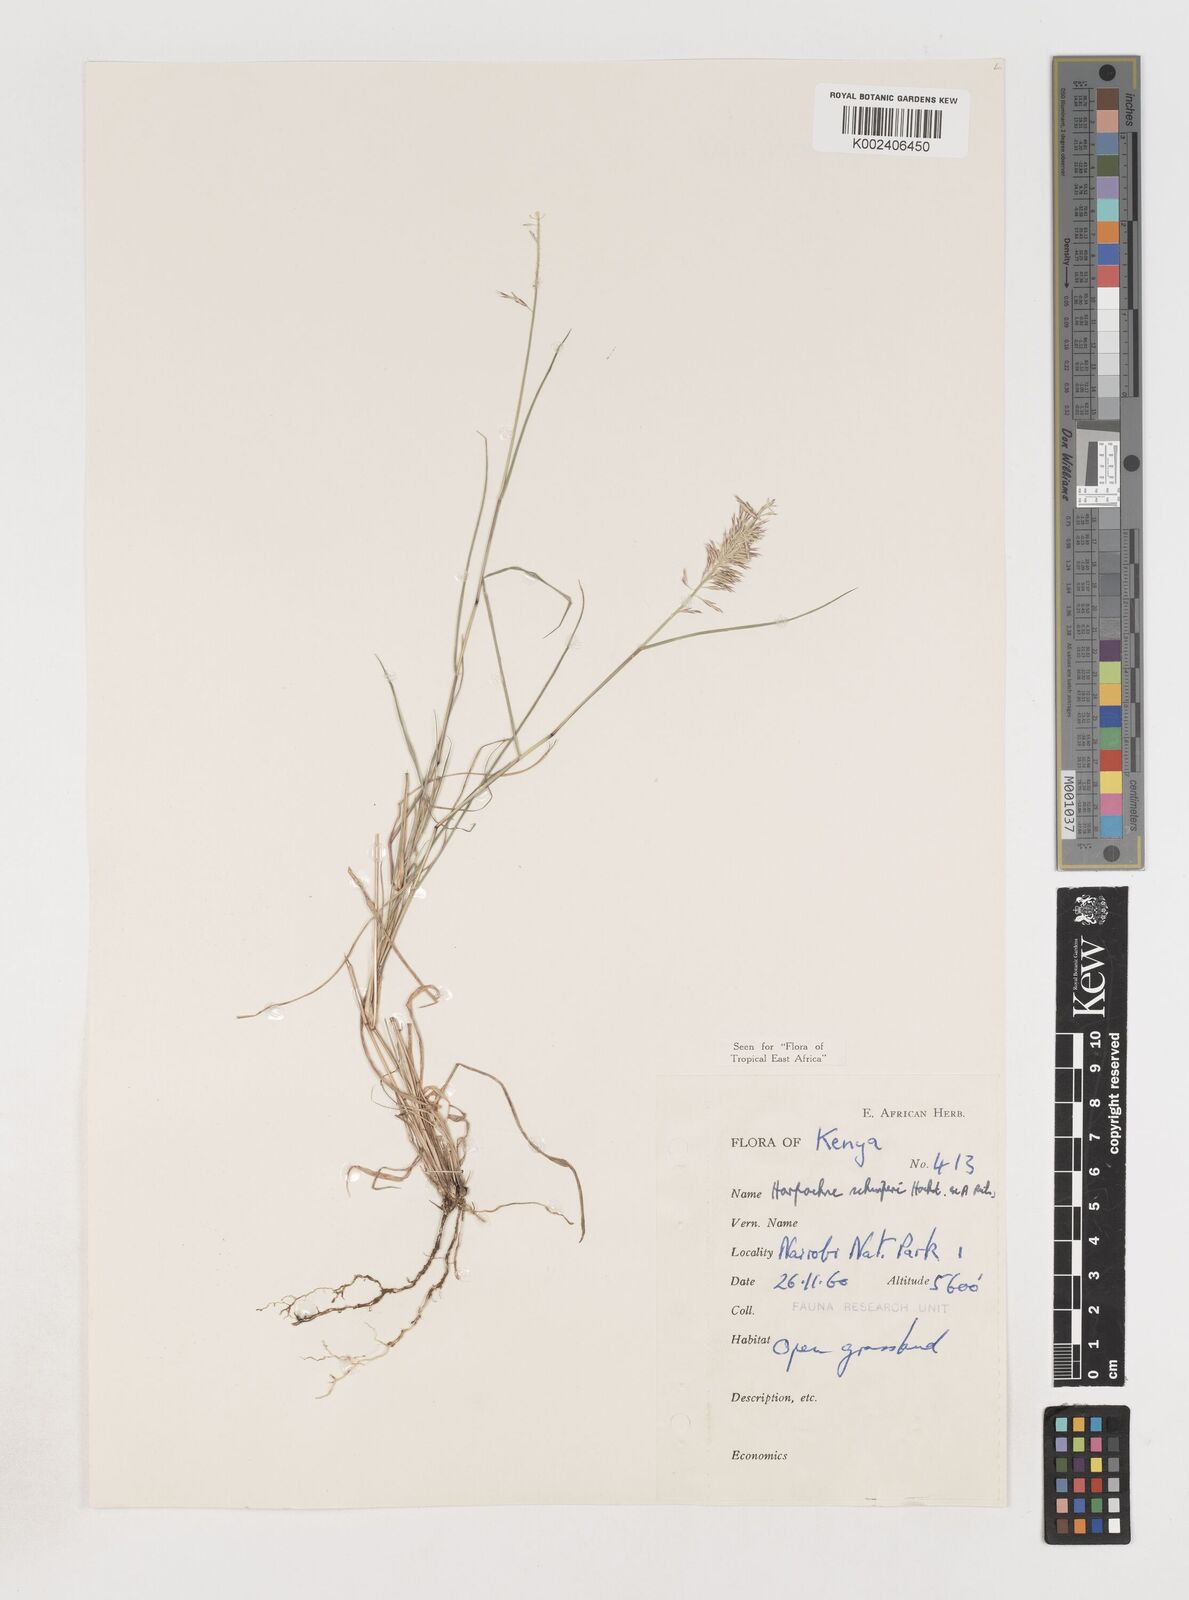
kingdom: Plantae
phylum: Tracheophyta
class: Liliopsida
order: Poales
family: Poaceae
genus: Harpachne
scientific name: Harpachne schimperi
